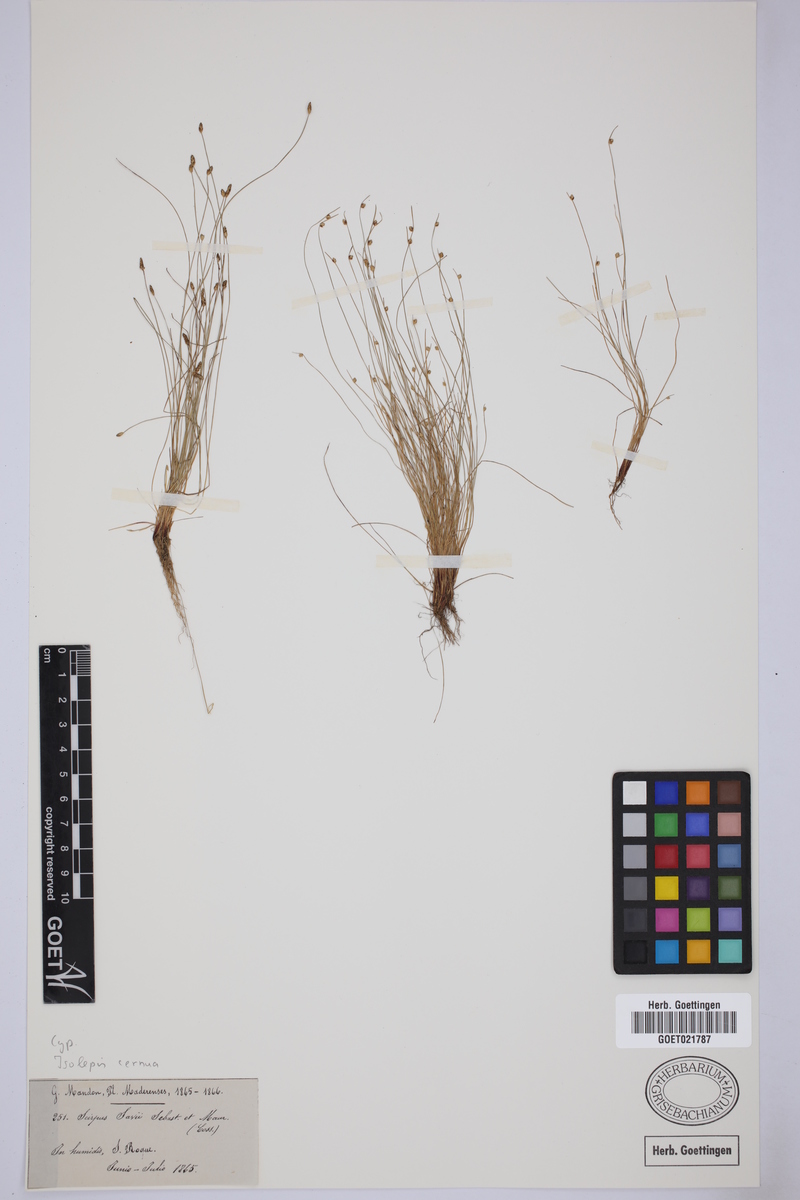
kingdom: Plantae
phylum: Tracheophyta
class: Liliopsida
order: Poales
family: Cyperaceae
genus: Isolepis
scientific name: Isolepis cernua
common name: Slender club-rush
